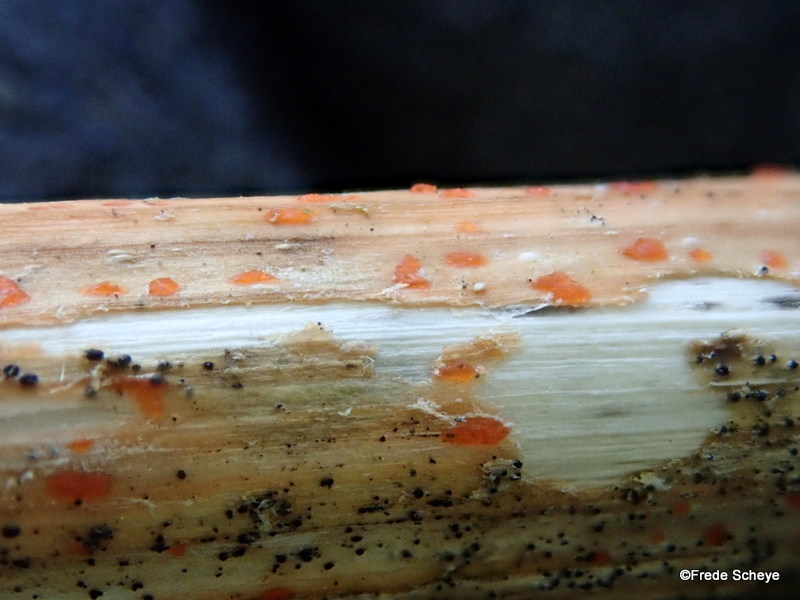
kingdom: Fungi
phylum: Ascomycota
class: Leotiomycetes
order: Helotiales
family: Calloriaceae
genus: Calloria
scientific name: Calloria urticae
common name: nælde-orangeskive
